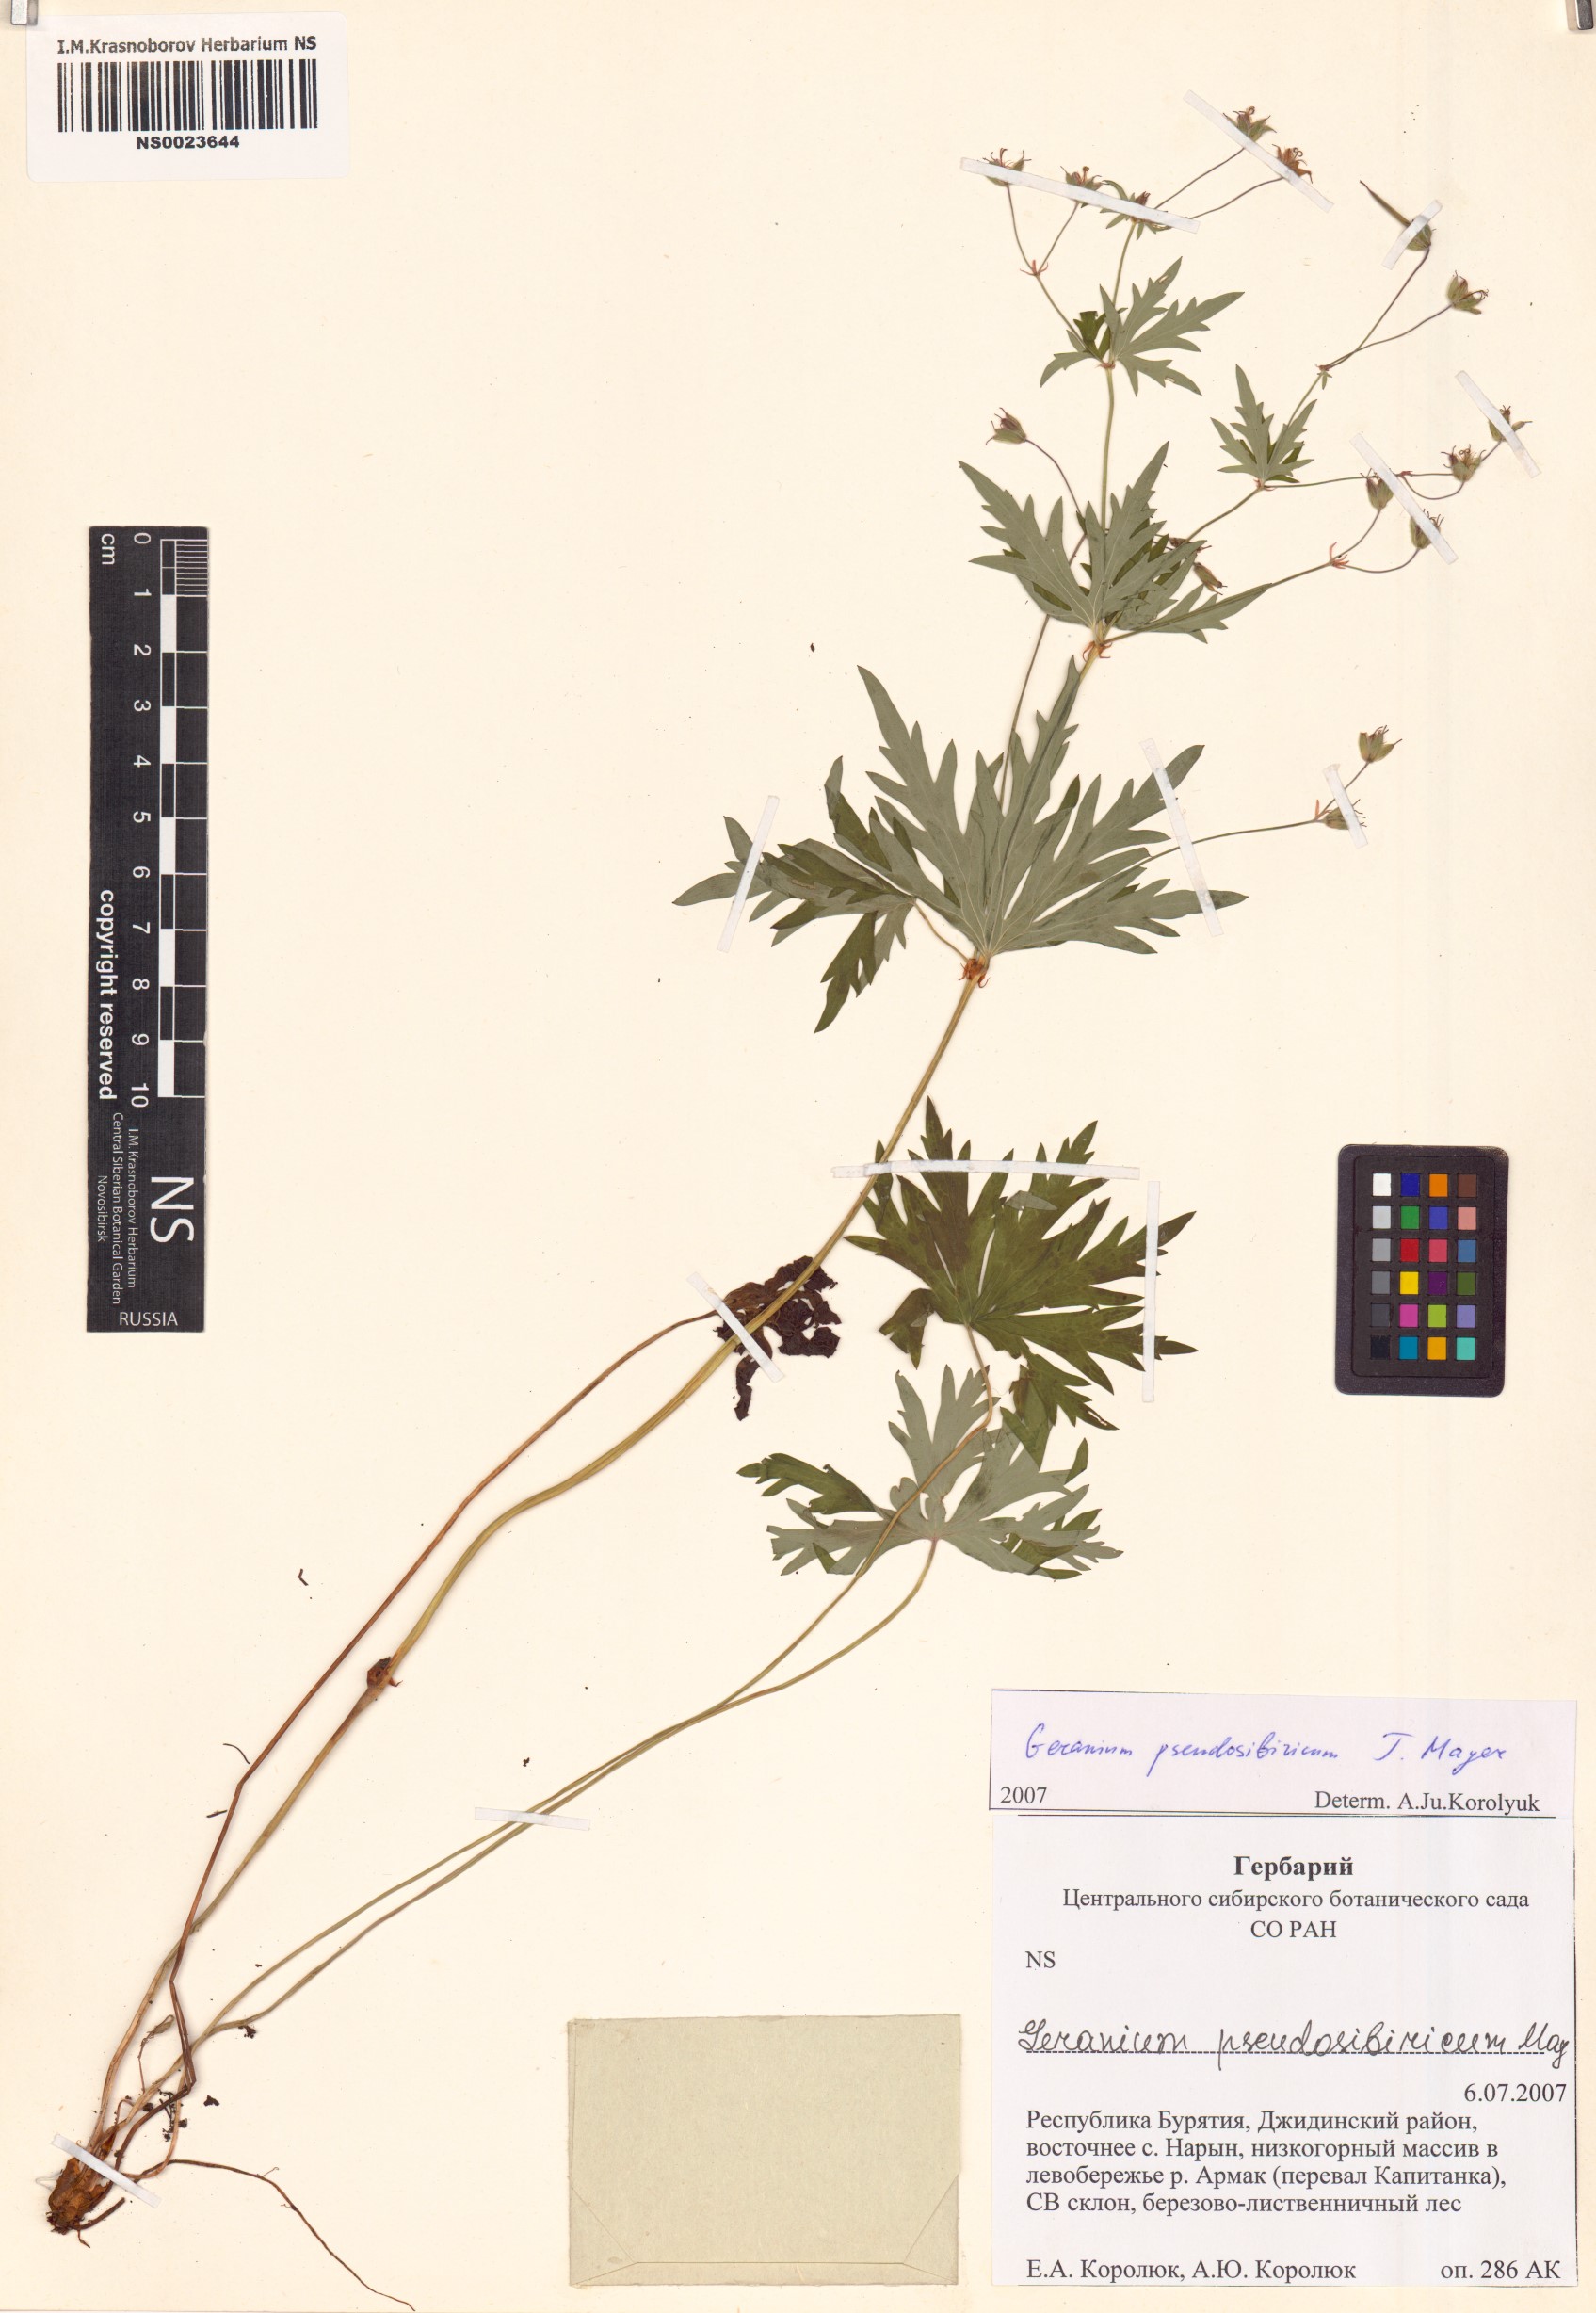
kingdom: Plantae
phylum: Tracheophyta
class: Magnoliopsida
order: Geraniales
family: Geraniaceae
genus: Geranium
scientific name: Geranium pseudosibiricum
